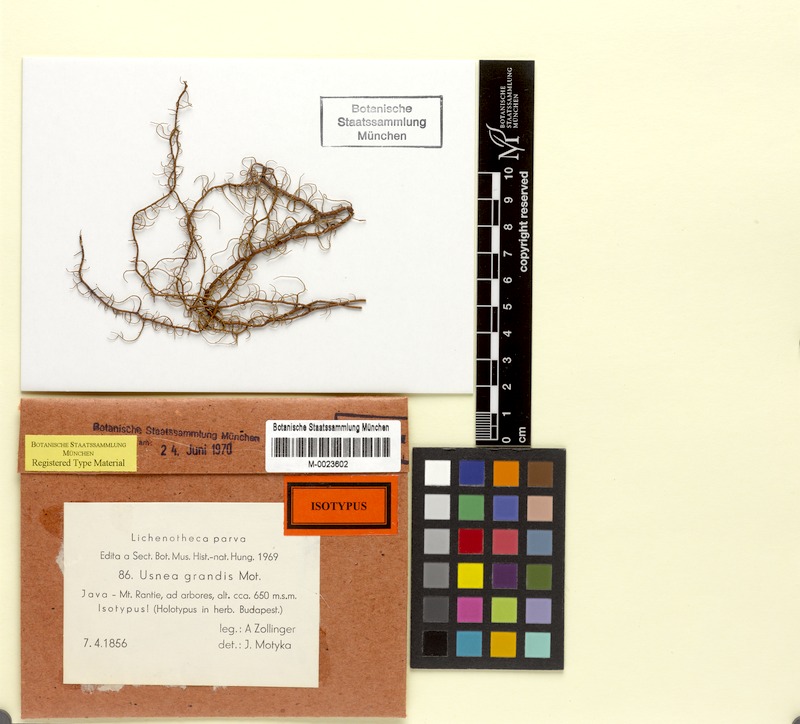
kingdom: Fungi
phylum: Ascomycota
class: Lecanoromycetes
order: Lecanorales
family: Parmeliaceae
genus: Usnea
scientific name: Usnea grandis
